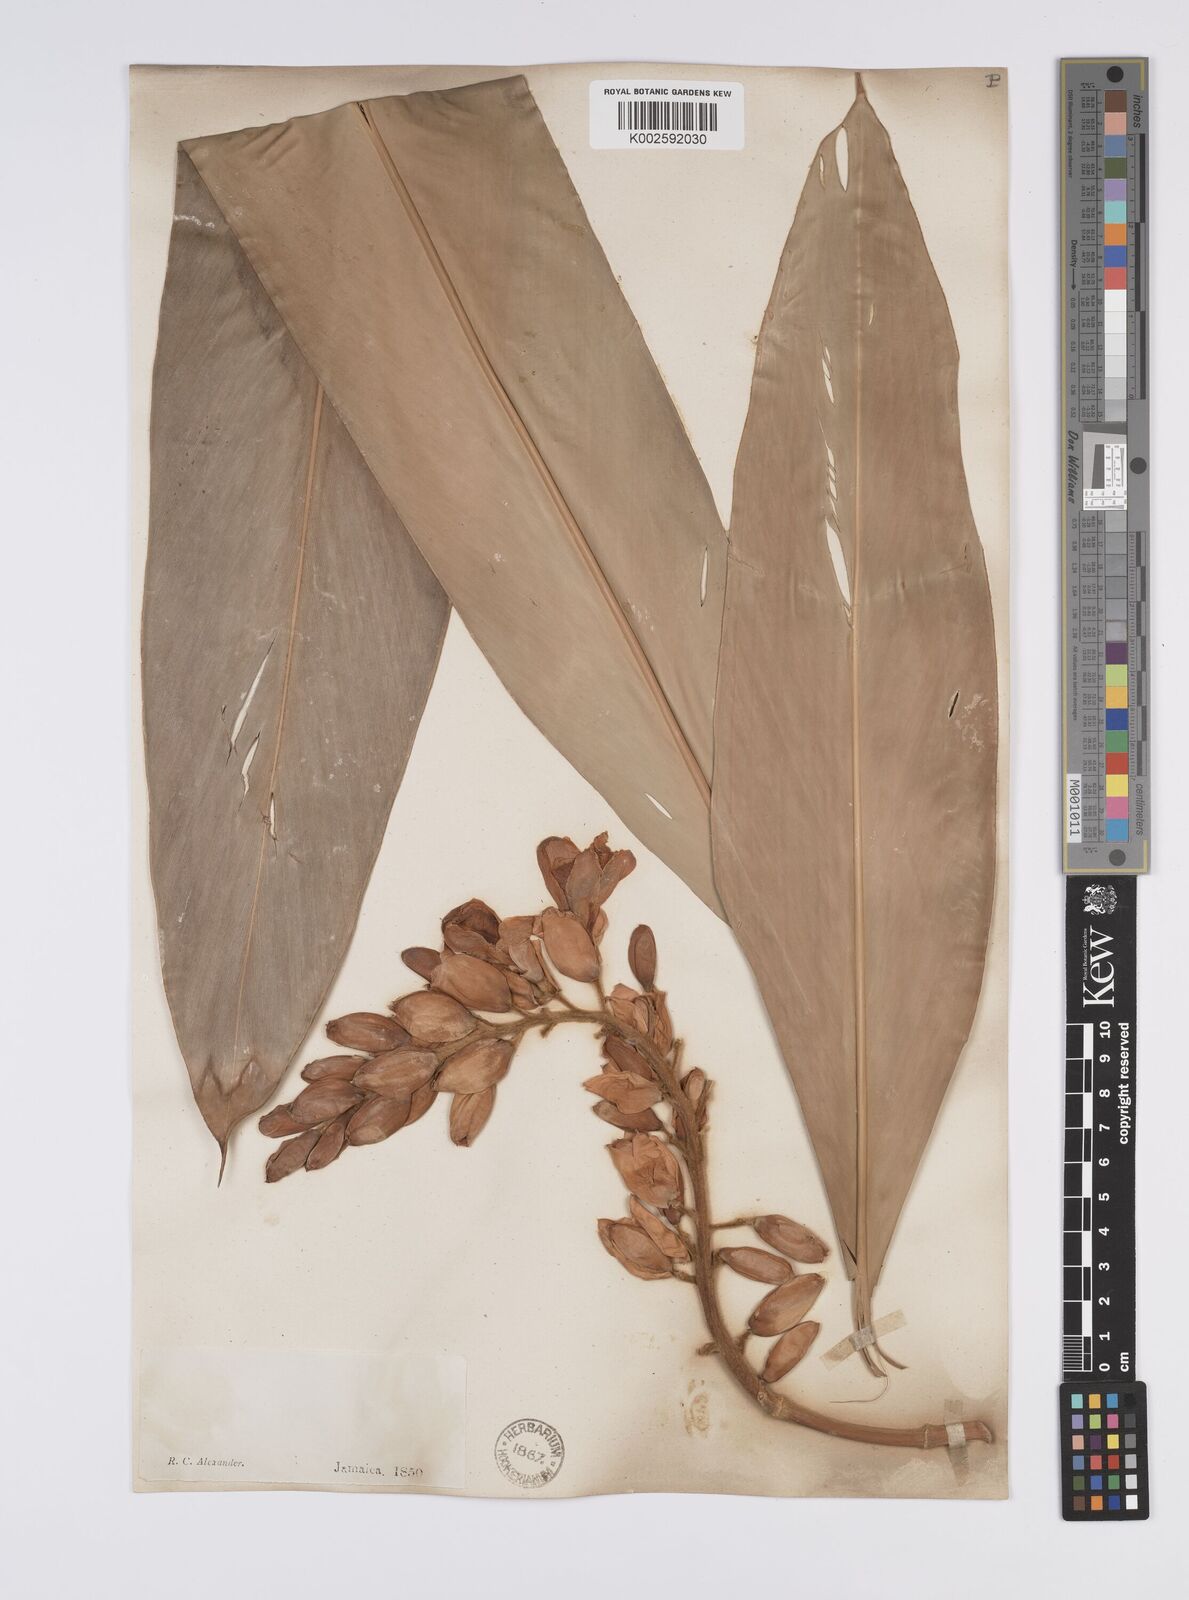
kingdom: Plantae
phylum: Tracheophyta
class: Liliopsida
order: Zingiberales
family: Zingiberaceae
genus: Alpinia
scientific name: Alpinia zerumbet
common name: Shellplant
